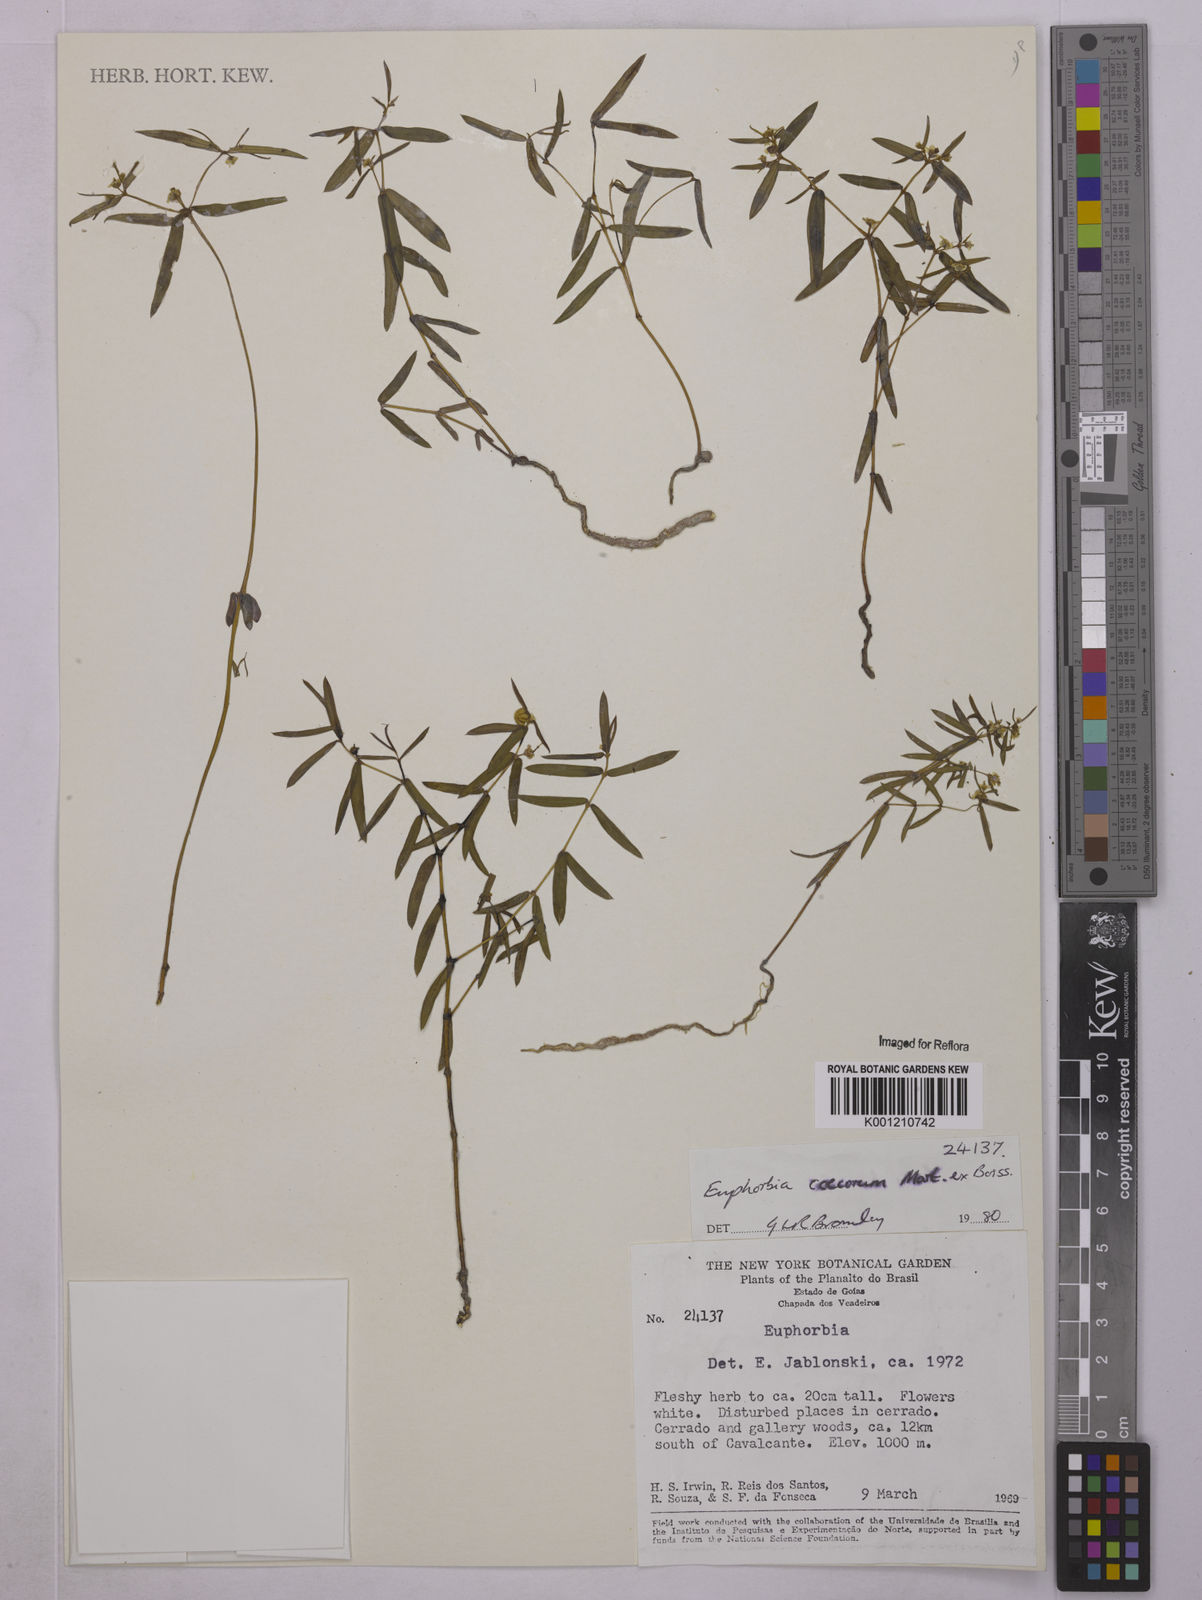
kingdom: Plantae
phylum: Tracheophyta
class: Magnoliopsida
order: Malpighiales
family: Euphorbiaceae
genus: Euphorbia
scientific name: Euphorbia potentilloides
